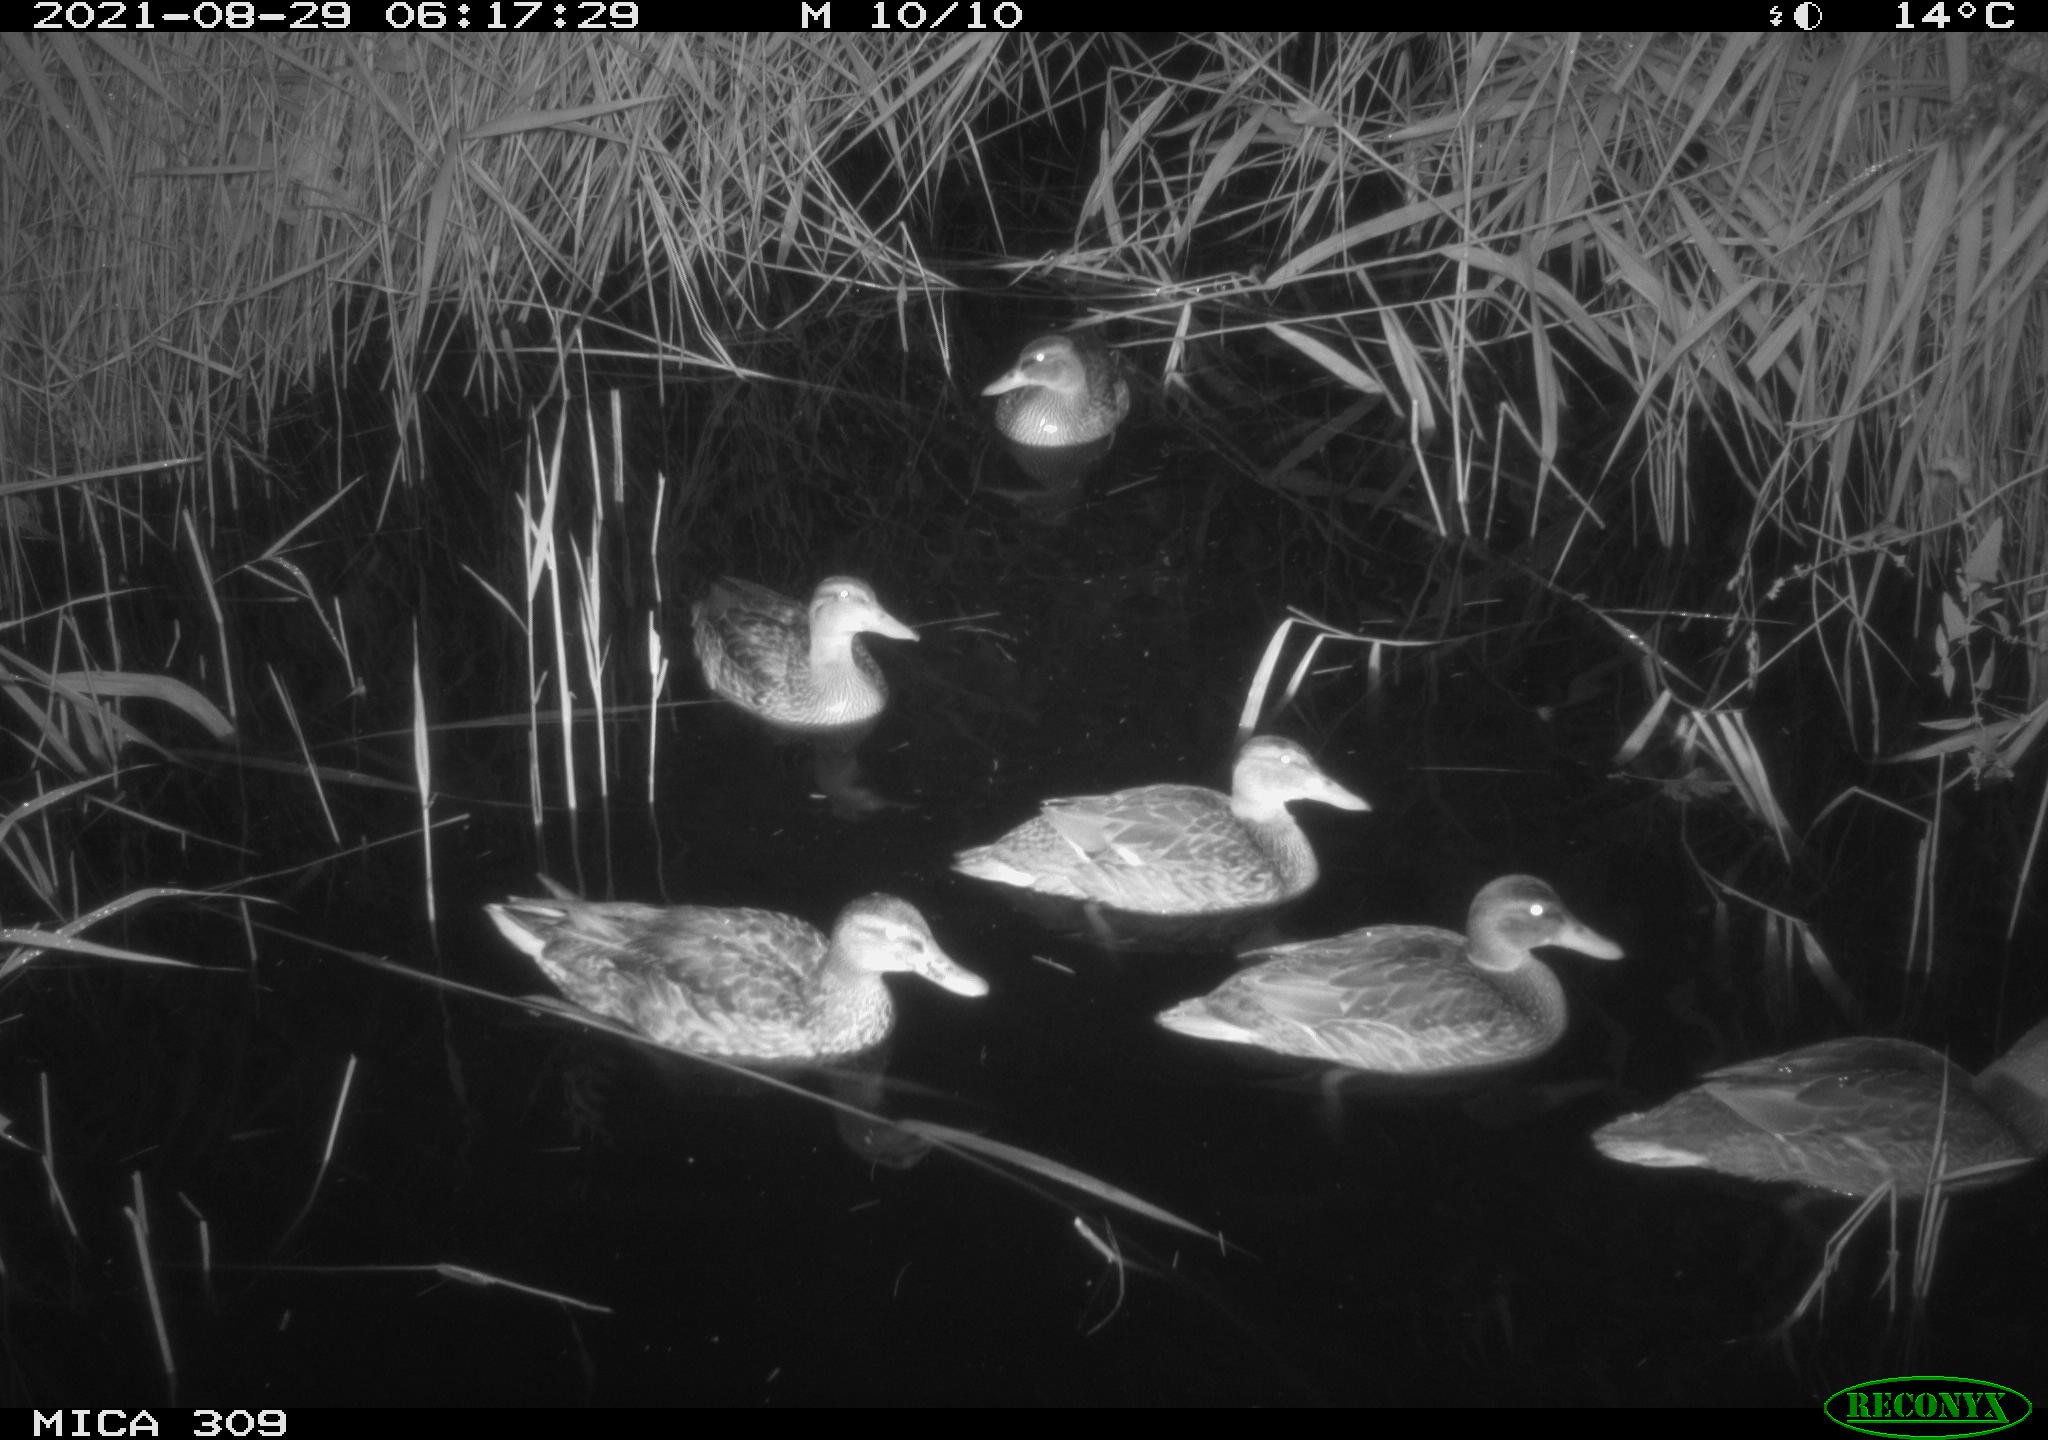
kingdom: Animalia
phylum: Chordata
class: Aves
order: Anseriformes
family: Anatidae
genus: Anas
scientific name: Anas platyrhynchos
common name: Mallard
